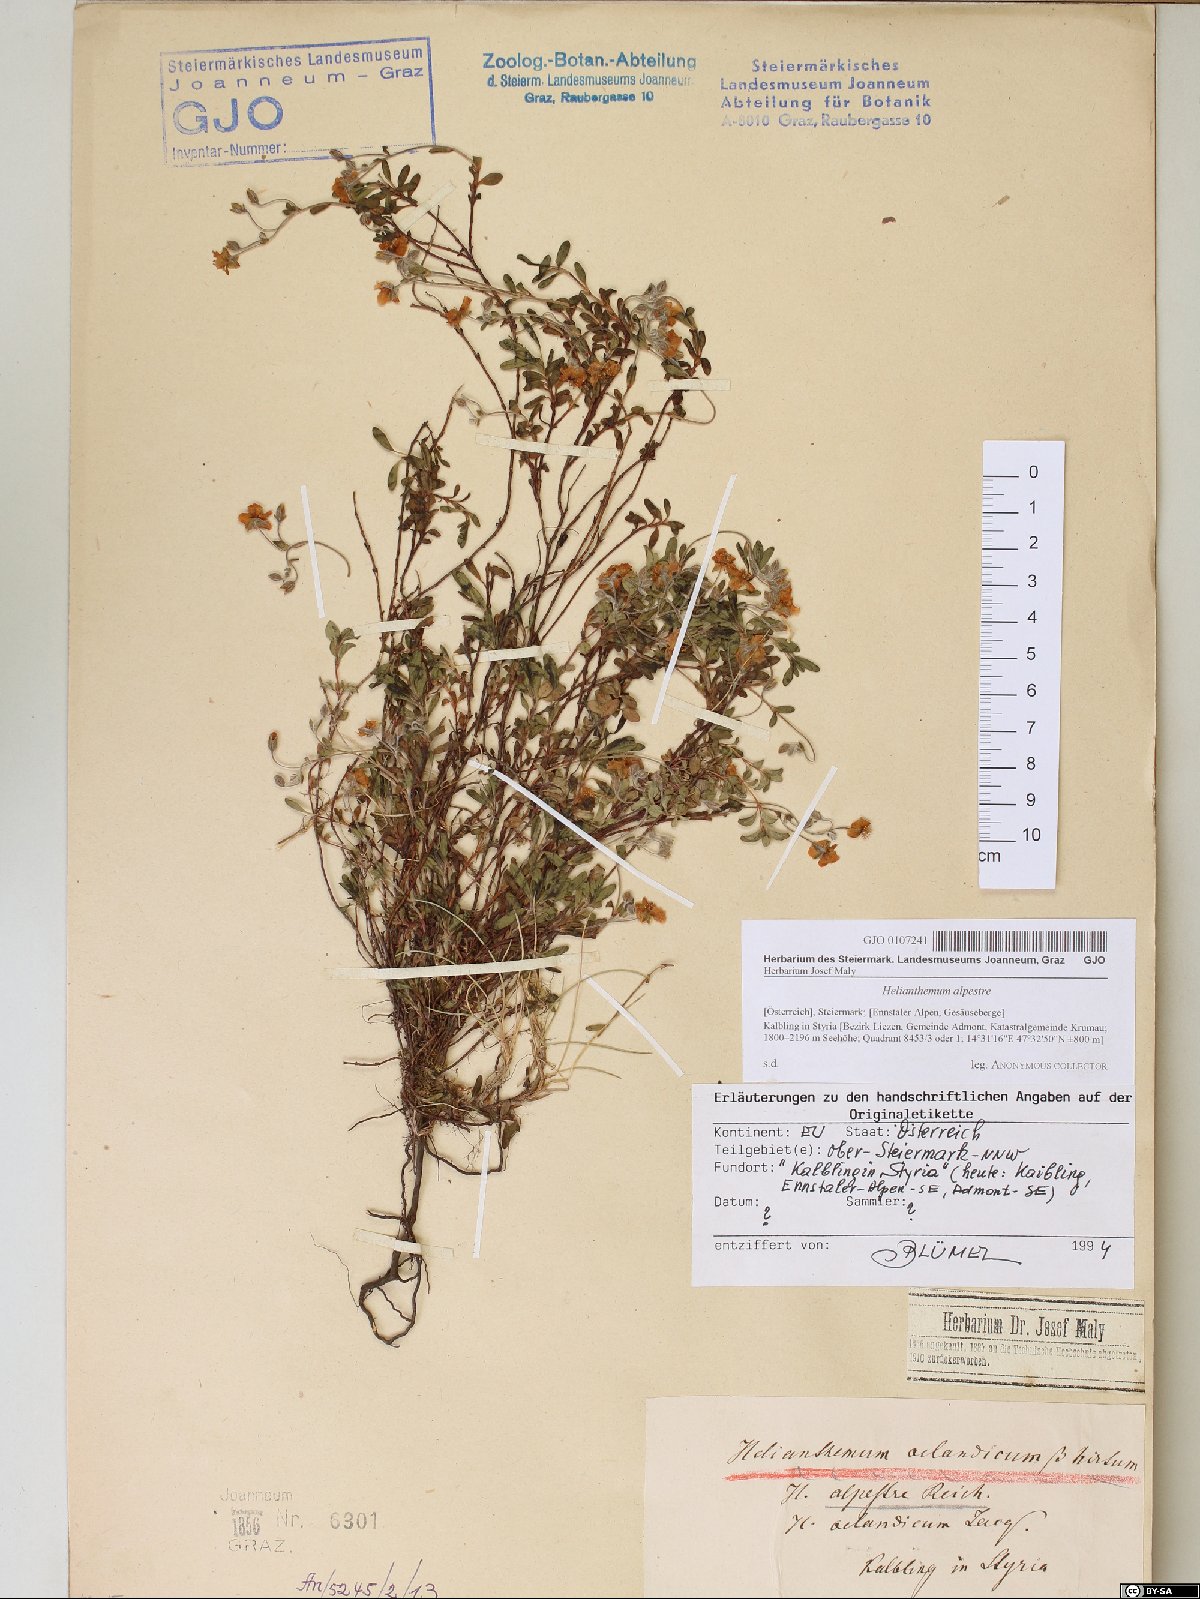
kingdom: Plantae
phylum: Tracheophyta
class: Magnoliopsida
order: Malvales
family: Cistaceae
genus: Helianthemum
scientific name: Helianthemum alpestre
